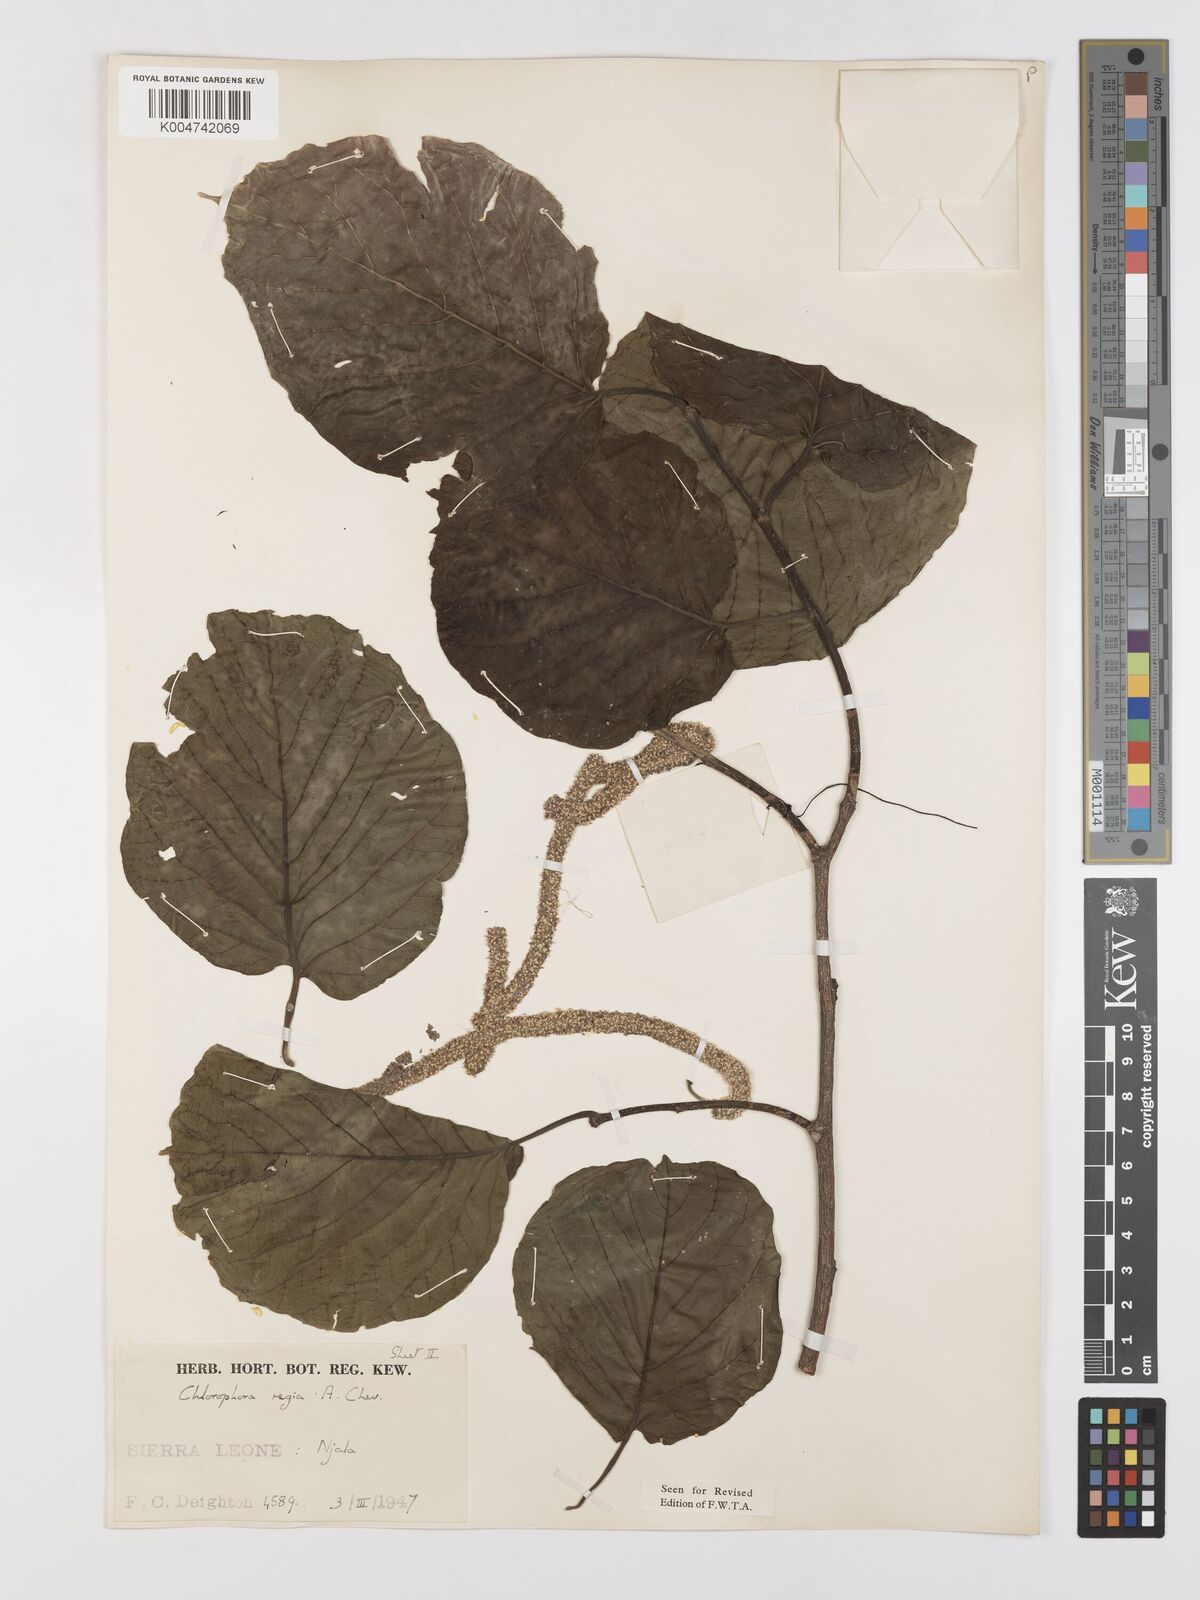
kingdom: Plantae
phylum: Tracheophyta
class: Magnoliopsida
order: Rosales
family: Moraceae
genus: Milicia
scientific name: Milicia excelsa
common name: African teak
